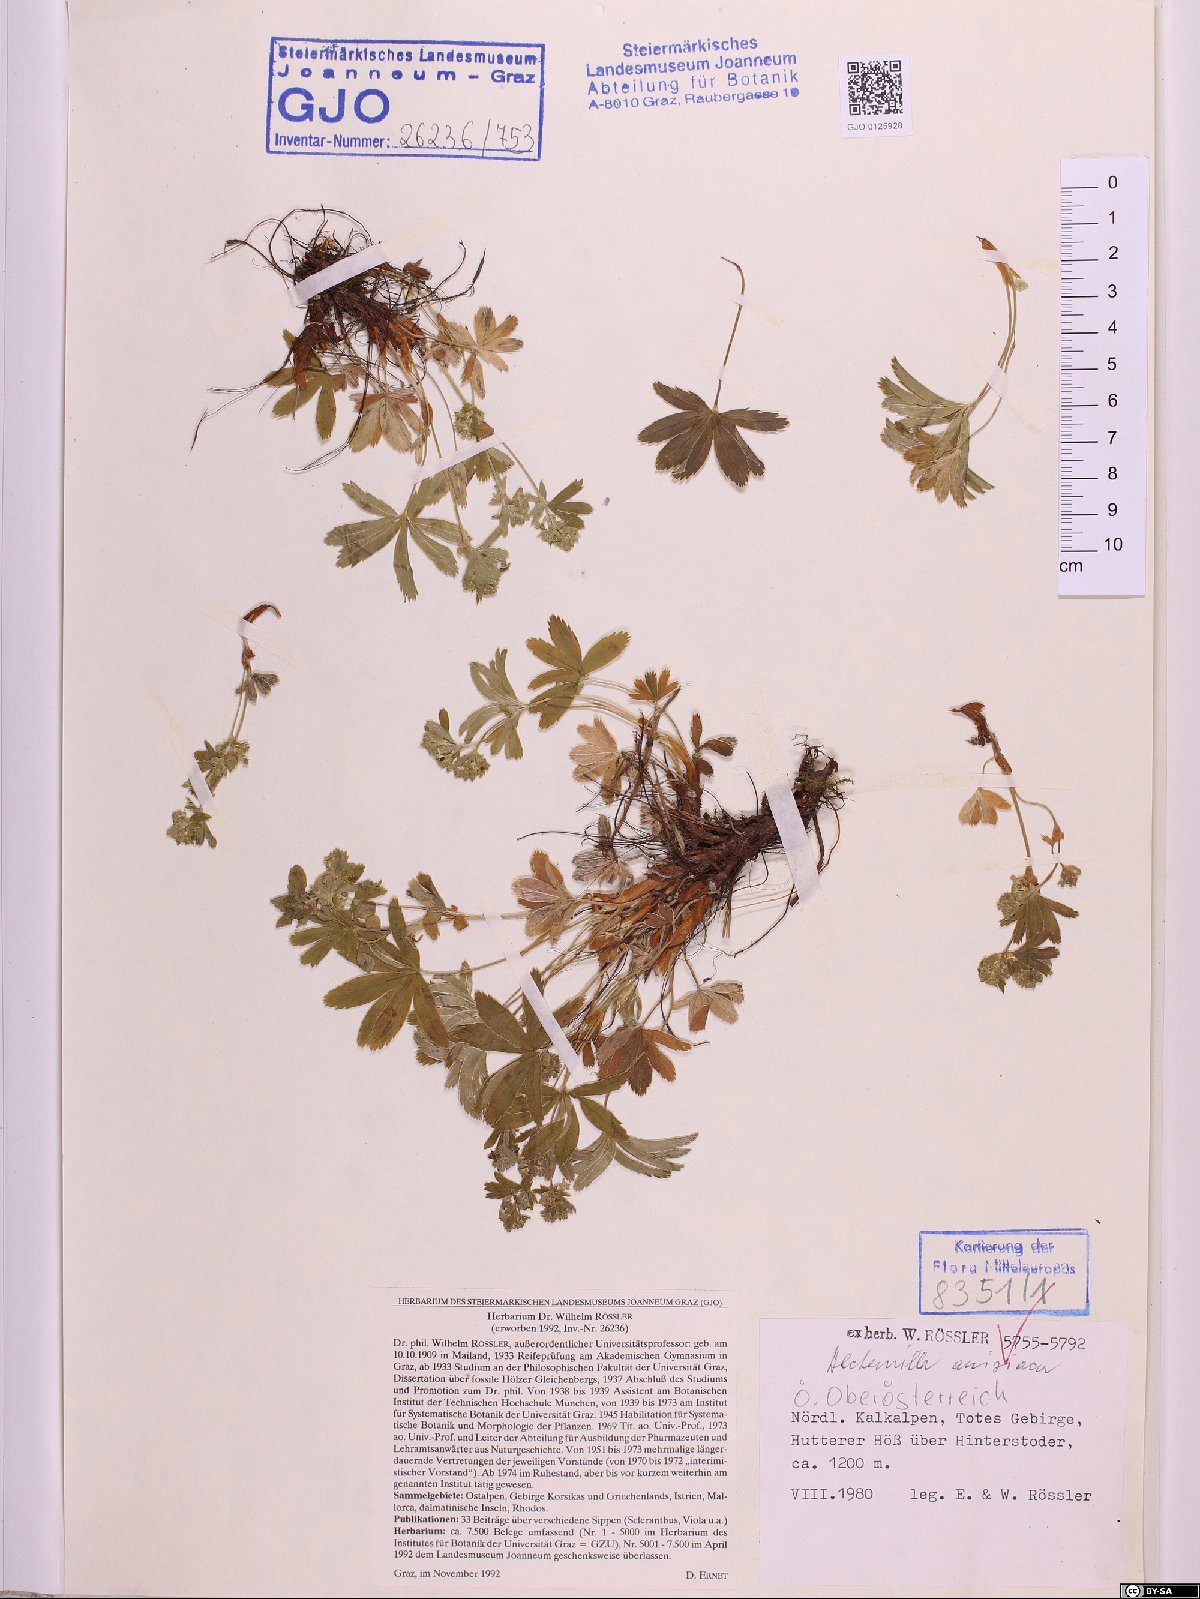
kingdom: Plantae
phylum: Tracheophyta
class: Magnoliopsida
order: Rosales
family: Rosaceae
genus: Alchemilla
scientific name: Alchemilla anisiaca
